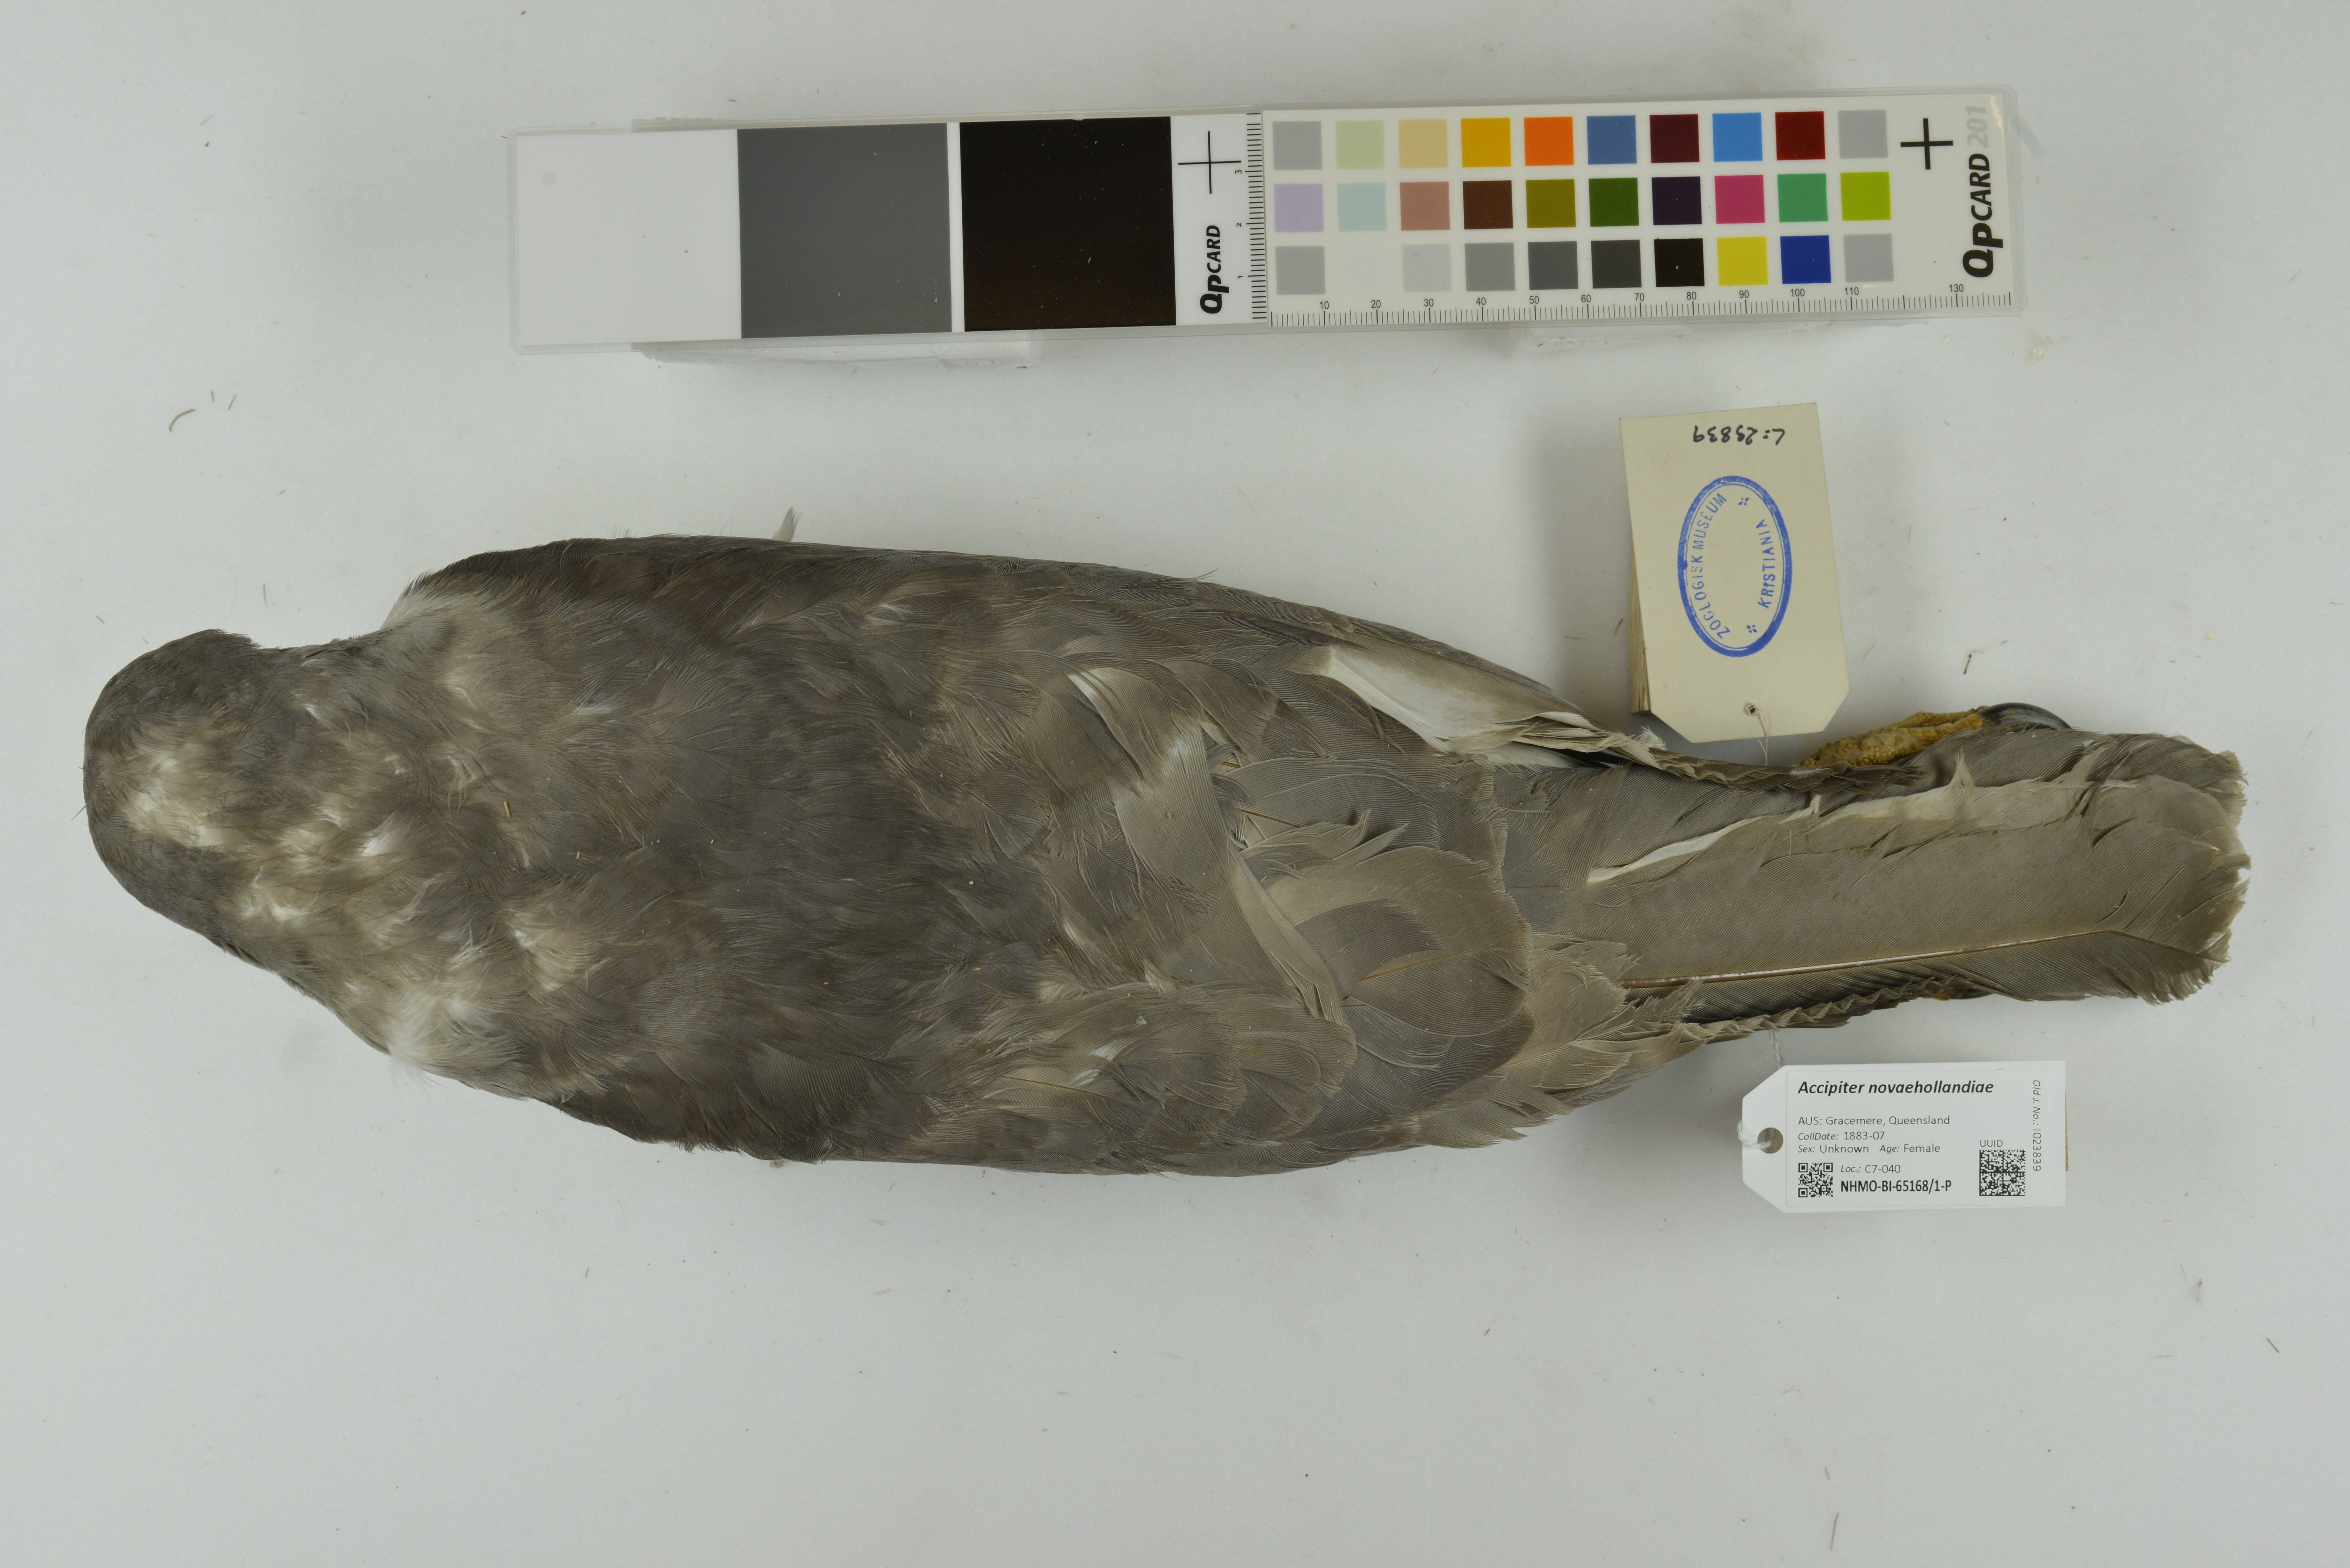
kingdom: Animalia
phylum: Chordata
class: Aves
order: Accipitriformes
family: Accipitridae
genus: Accipiter
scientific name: Accipiter novaehollandiae
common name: Grey goshawk
